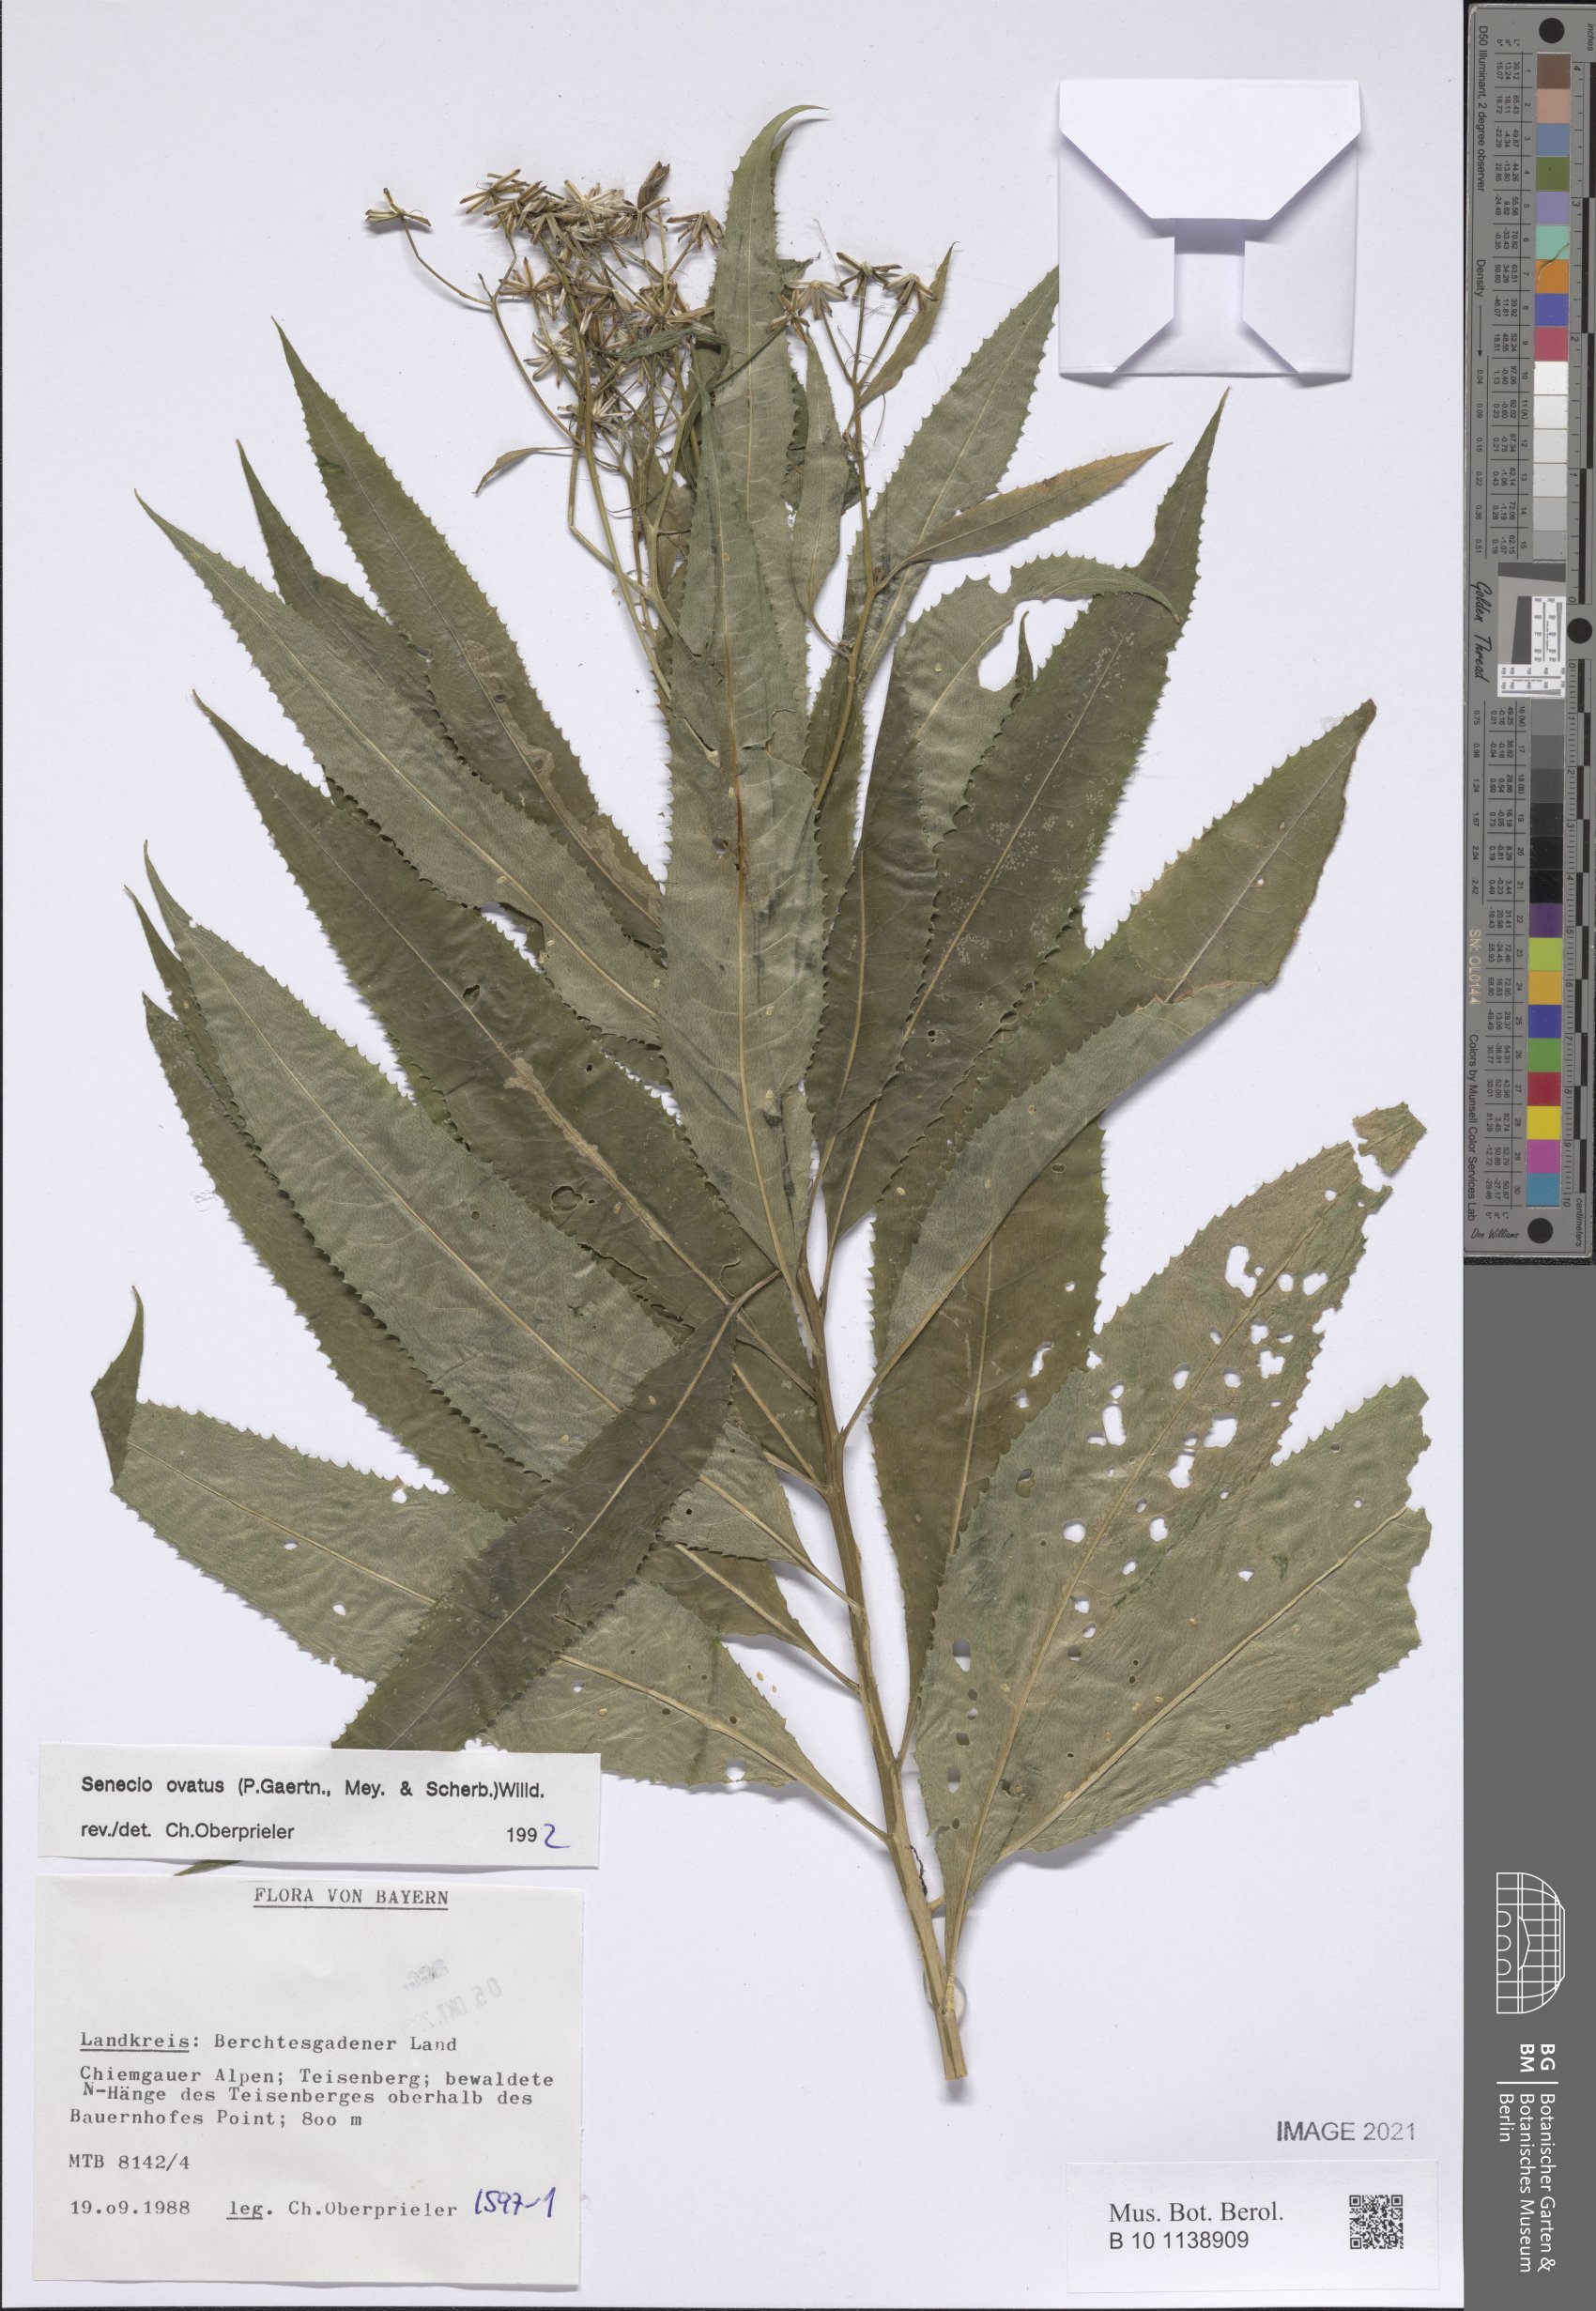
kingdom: Plantae
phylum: Tracheophyta
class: Magnoliopsida
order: Asterales
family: Asteraceae
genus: Senecio
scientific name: Senecio ovatus
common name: Wood ragwort
